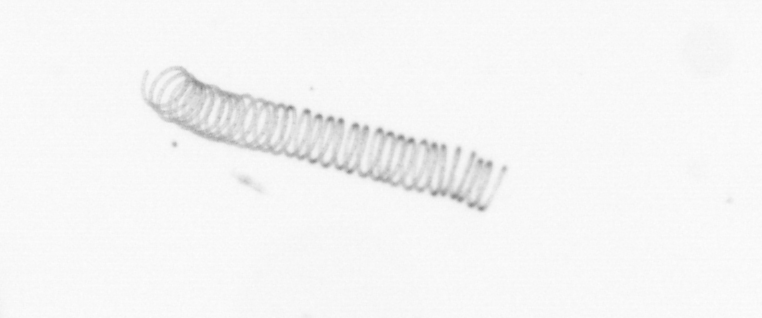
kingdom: Chromista
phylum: Ochrophyta
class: Bacillariophyceae
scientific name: Bacillariophyceae
